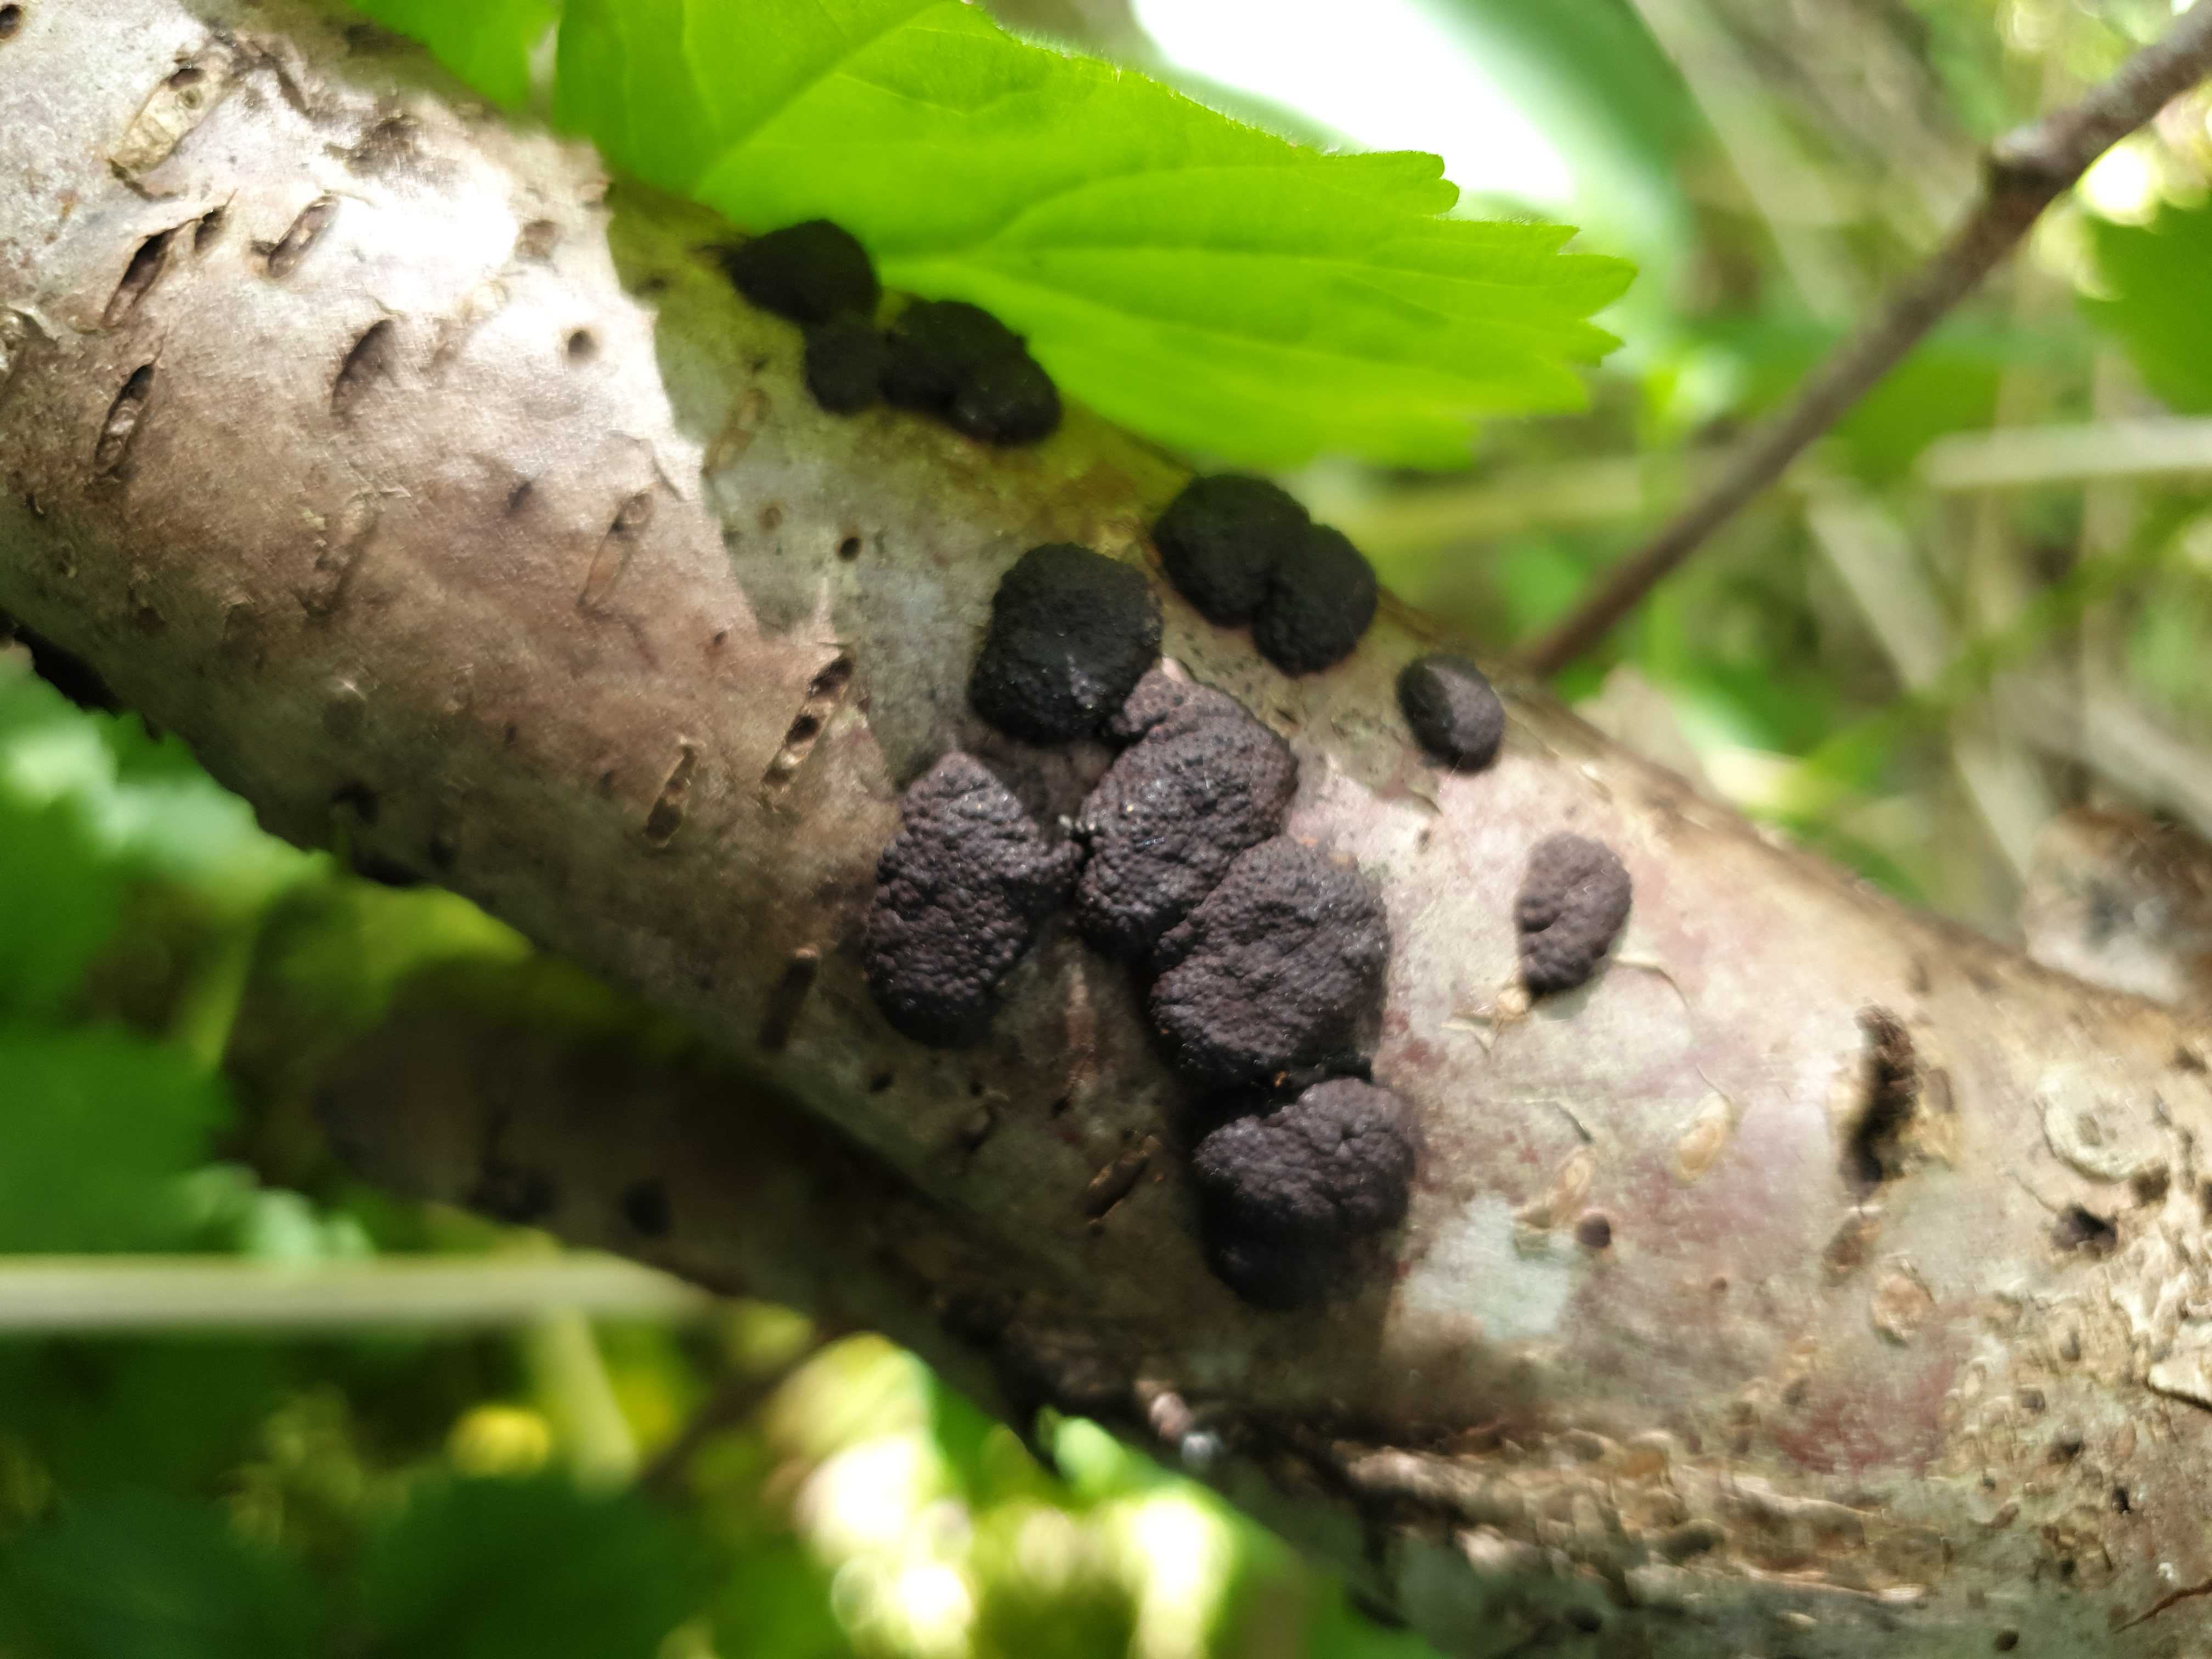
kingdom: Fungi
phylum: Ascomycota
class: Sordariomycetes
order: Xylariales
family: Hypoxylaceae
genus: Hypoxylon
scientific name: Hypoxylon
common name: kulbær
